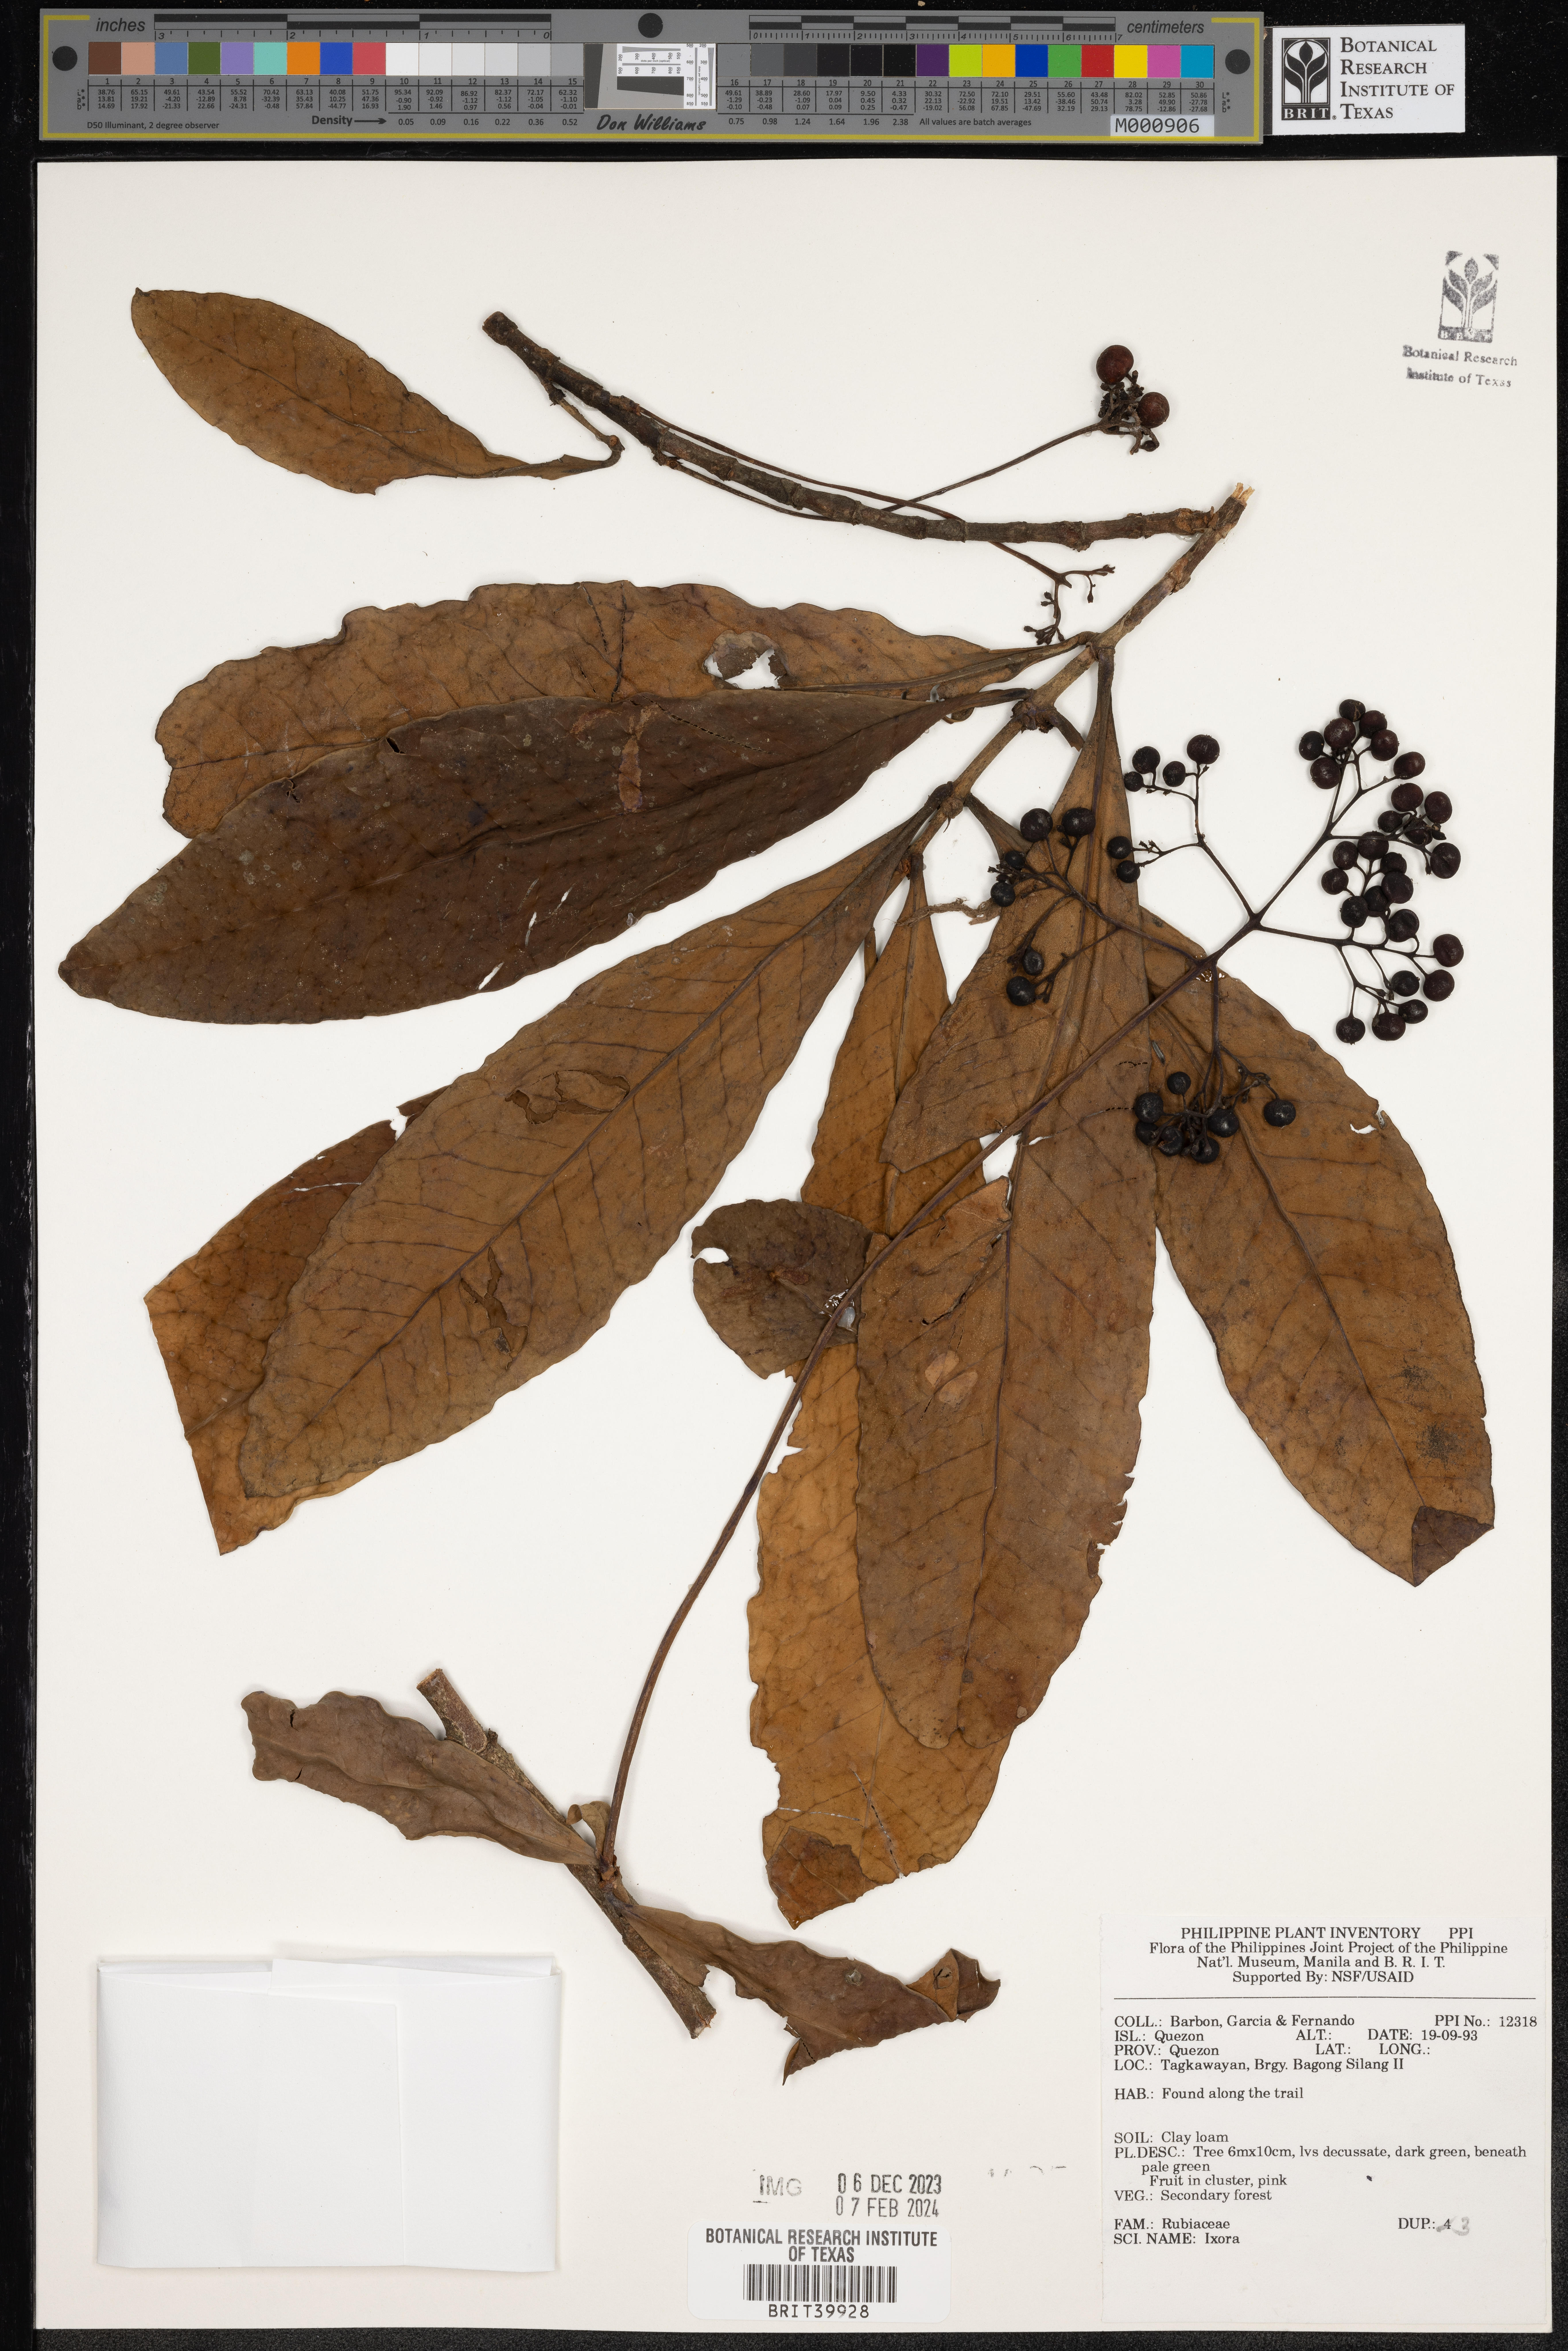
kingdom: Plantae
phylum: Tracheophyta
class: Magnoliopsida
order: Gentianales
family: Rubiaceae
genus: Ixora
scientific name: Ixora
